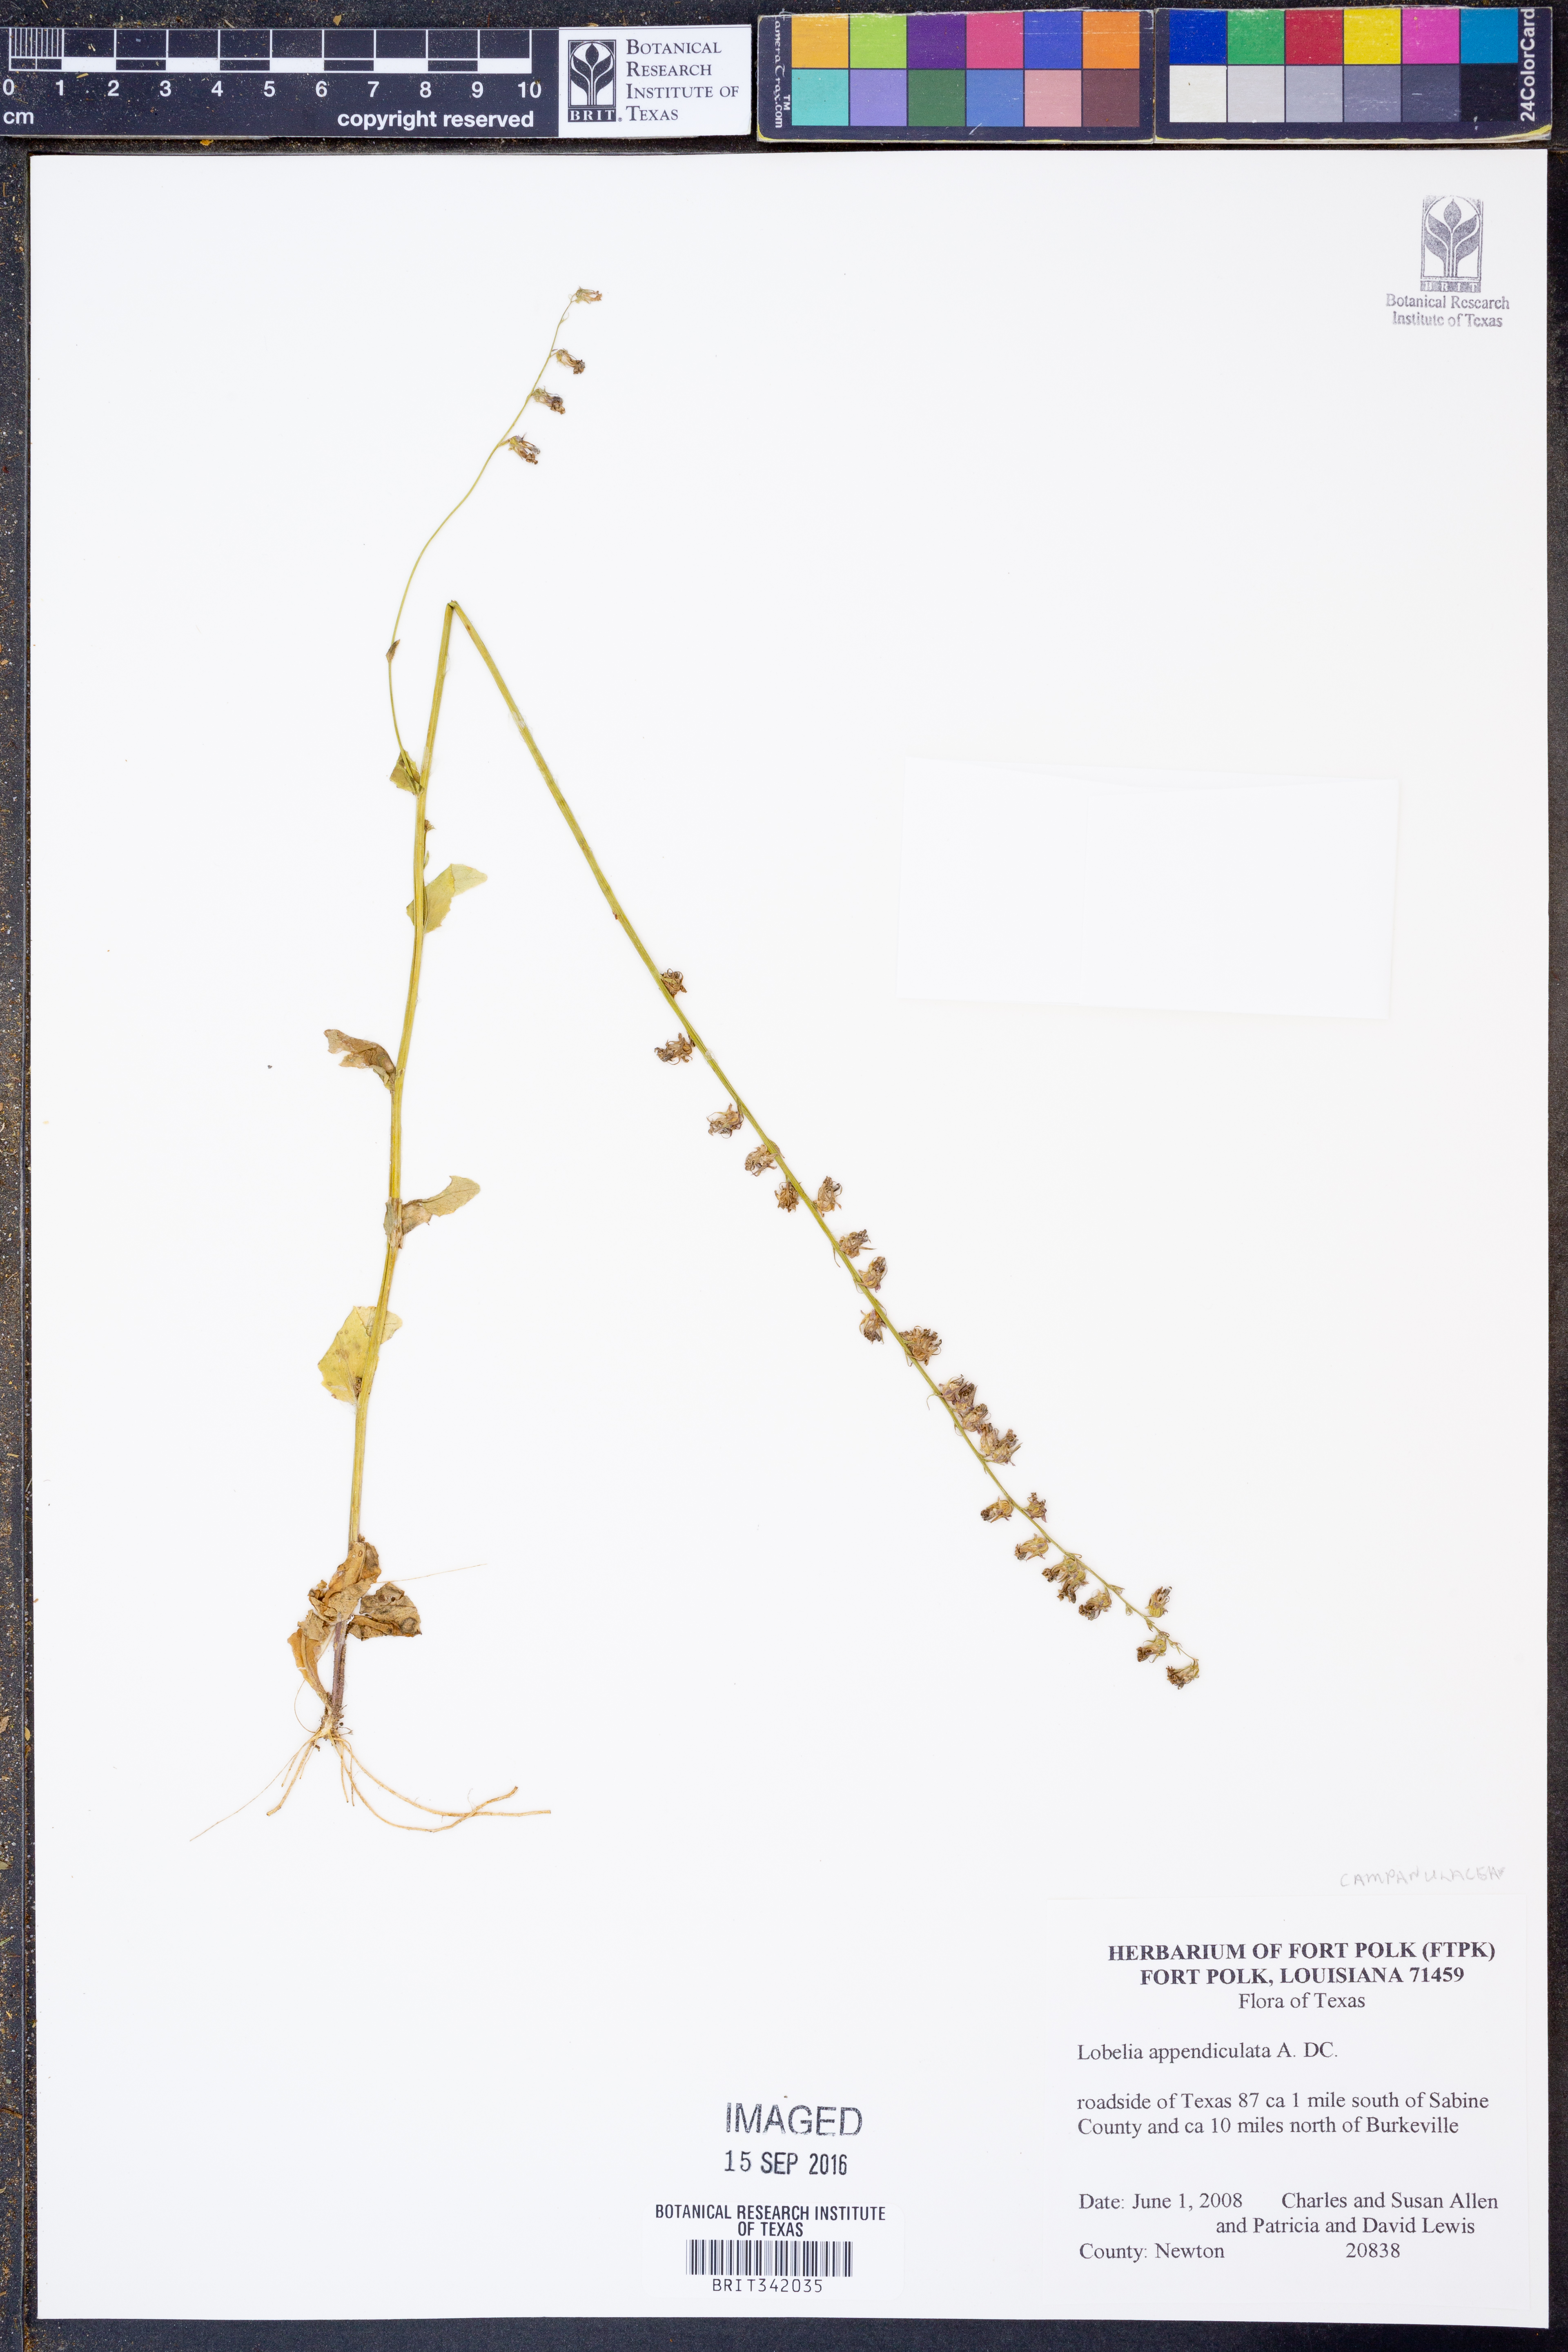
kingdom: Plantae
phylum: Tracheophyta
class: Magnoliopsida
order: Asterales
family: Campanulaceae
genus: Lobelia
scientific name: Lobelia appendiculata
